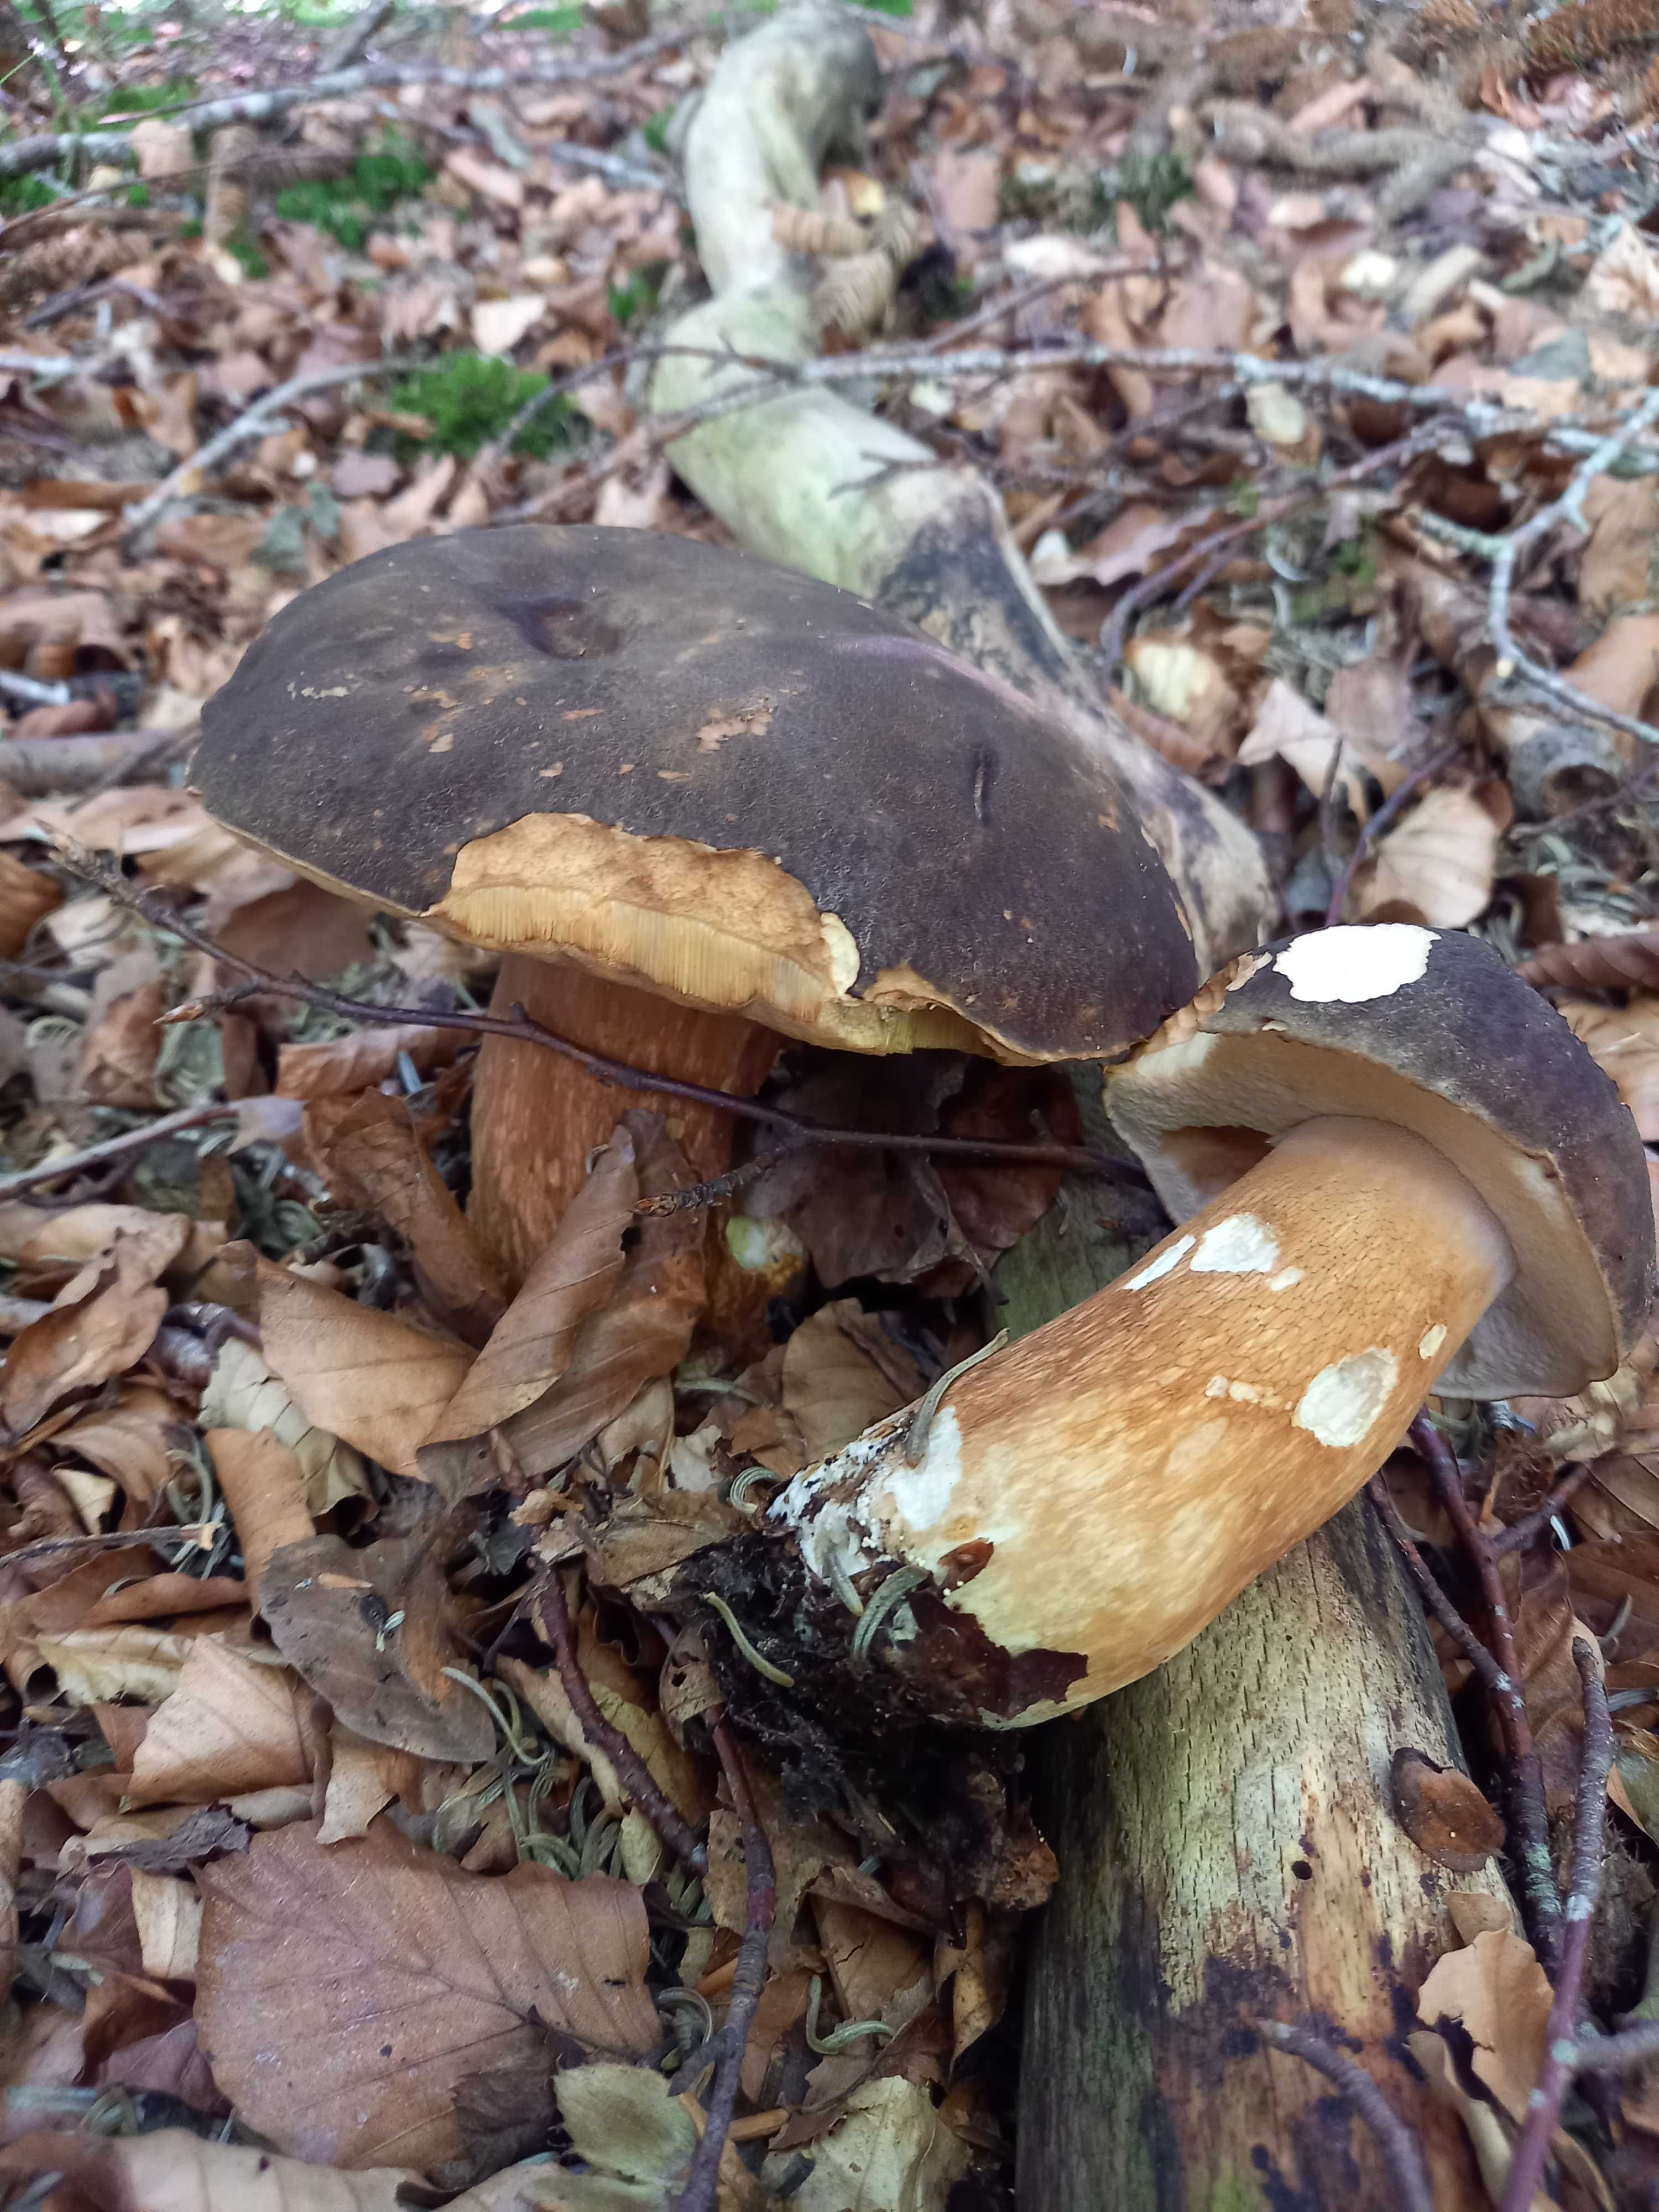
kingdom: Fungi
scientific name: Fungi
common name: bronze-rørhat
